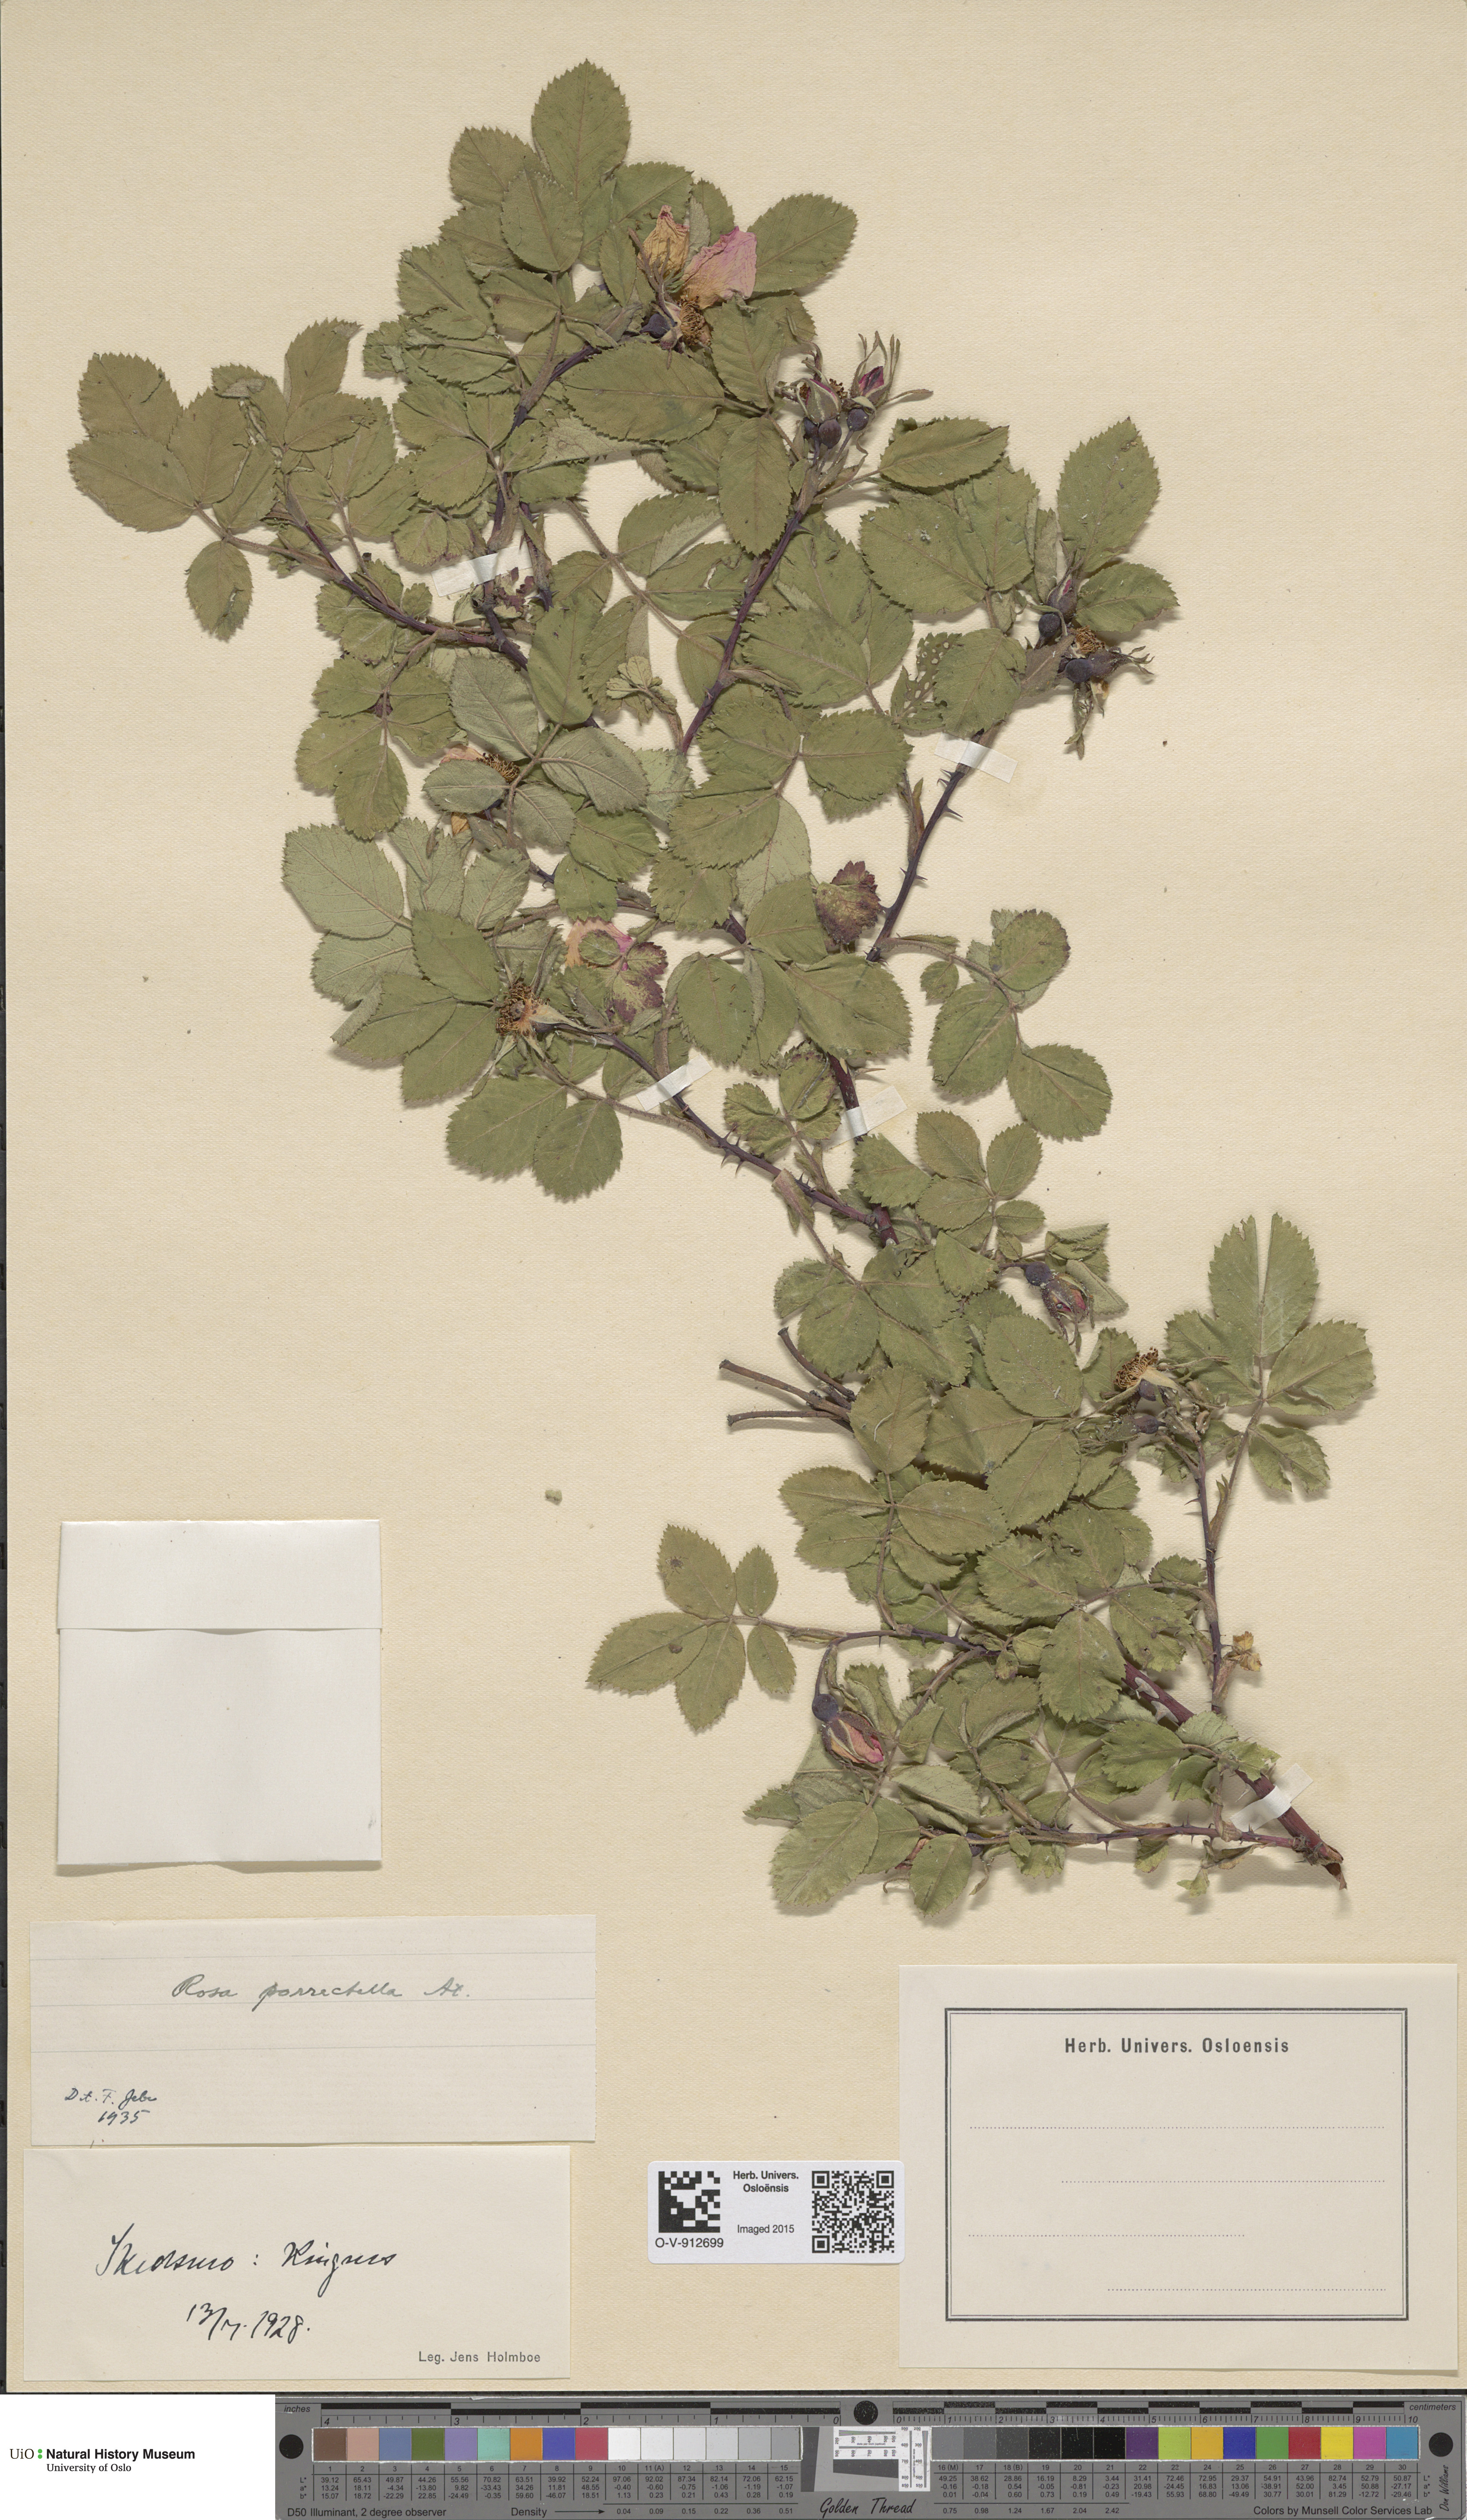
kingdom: Plantae
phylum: Tracheophyta
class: Magnoliopsida
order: Rosales
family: Rosaceae
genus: Rosa
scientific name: Rosa mollis
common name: Rose
